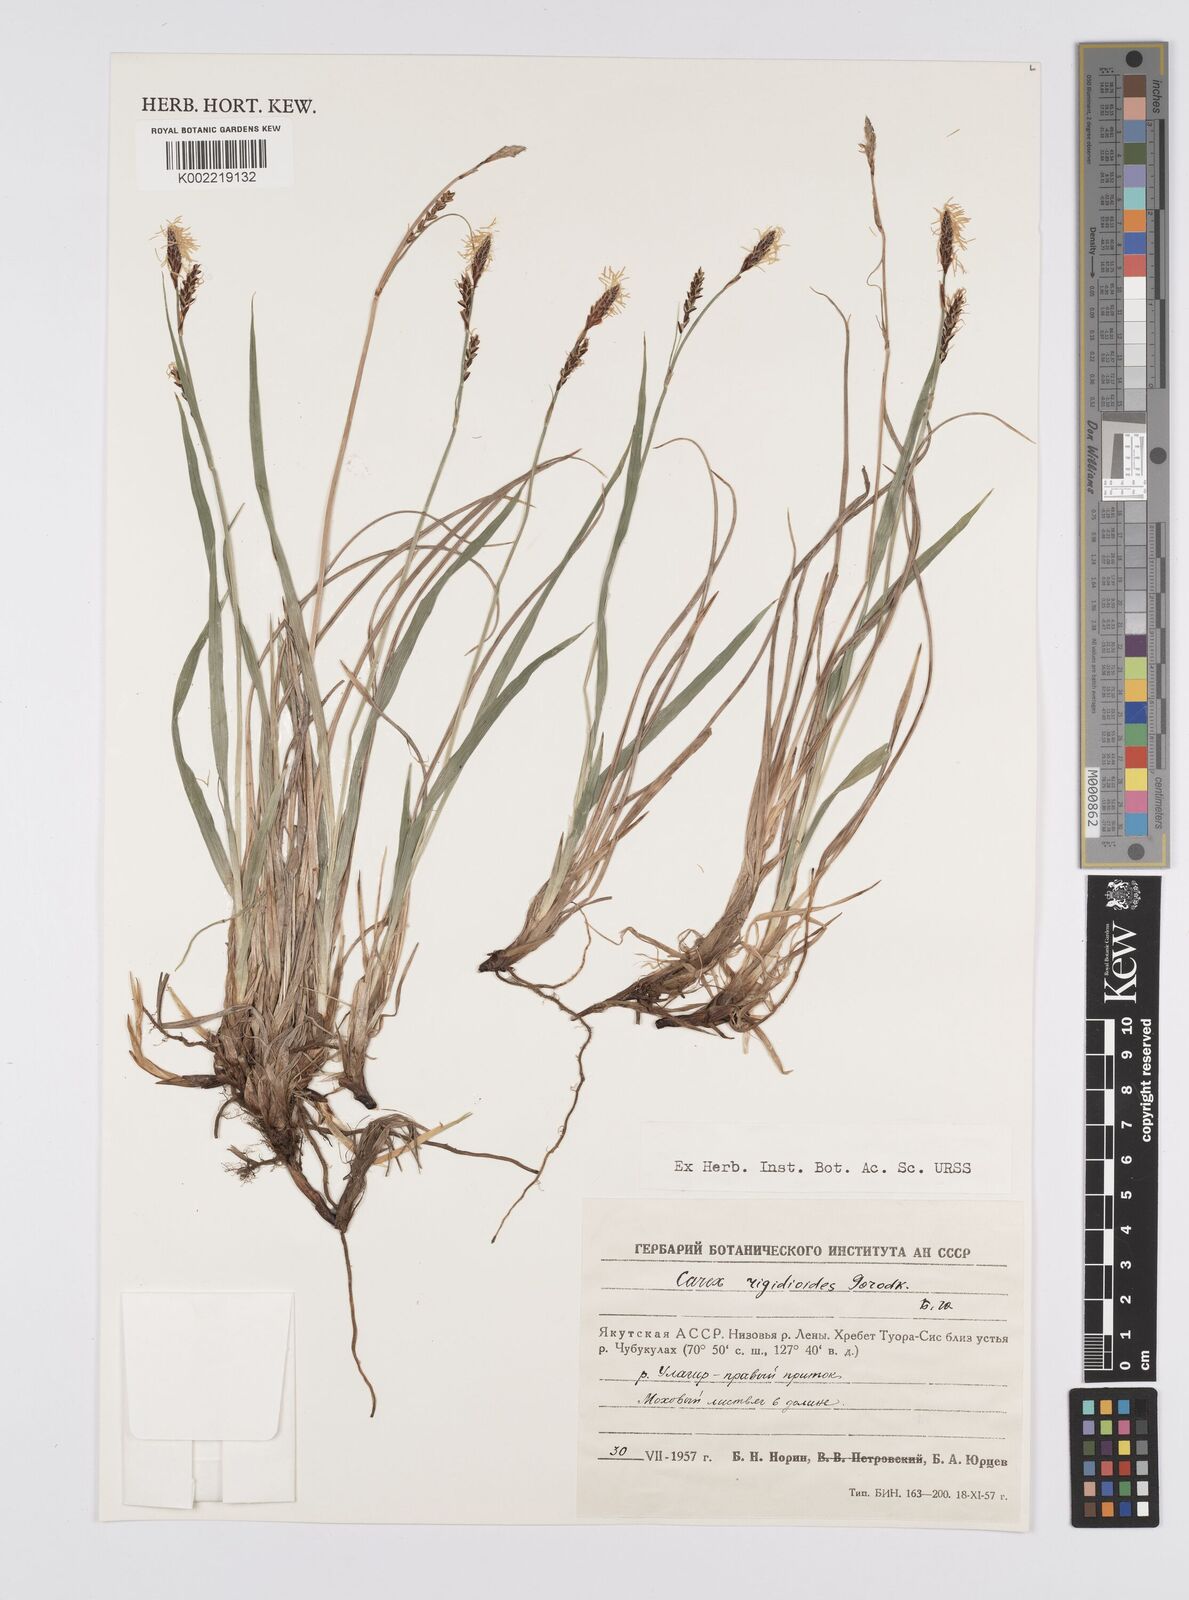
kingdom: Plantae
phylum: Tracheophyta
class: Liliopsida
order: Poales
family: Cyperaceae
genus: Carex
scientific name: Carex rigidioides
